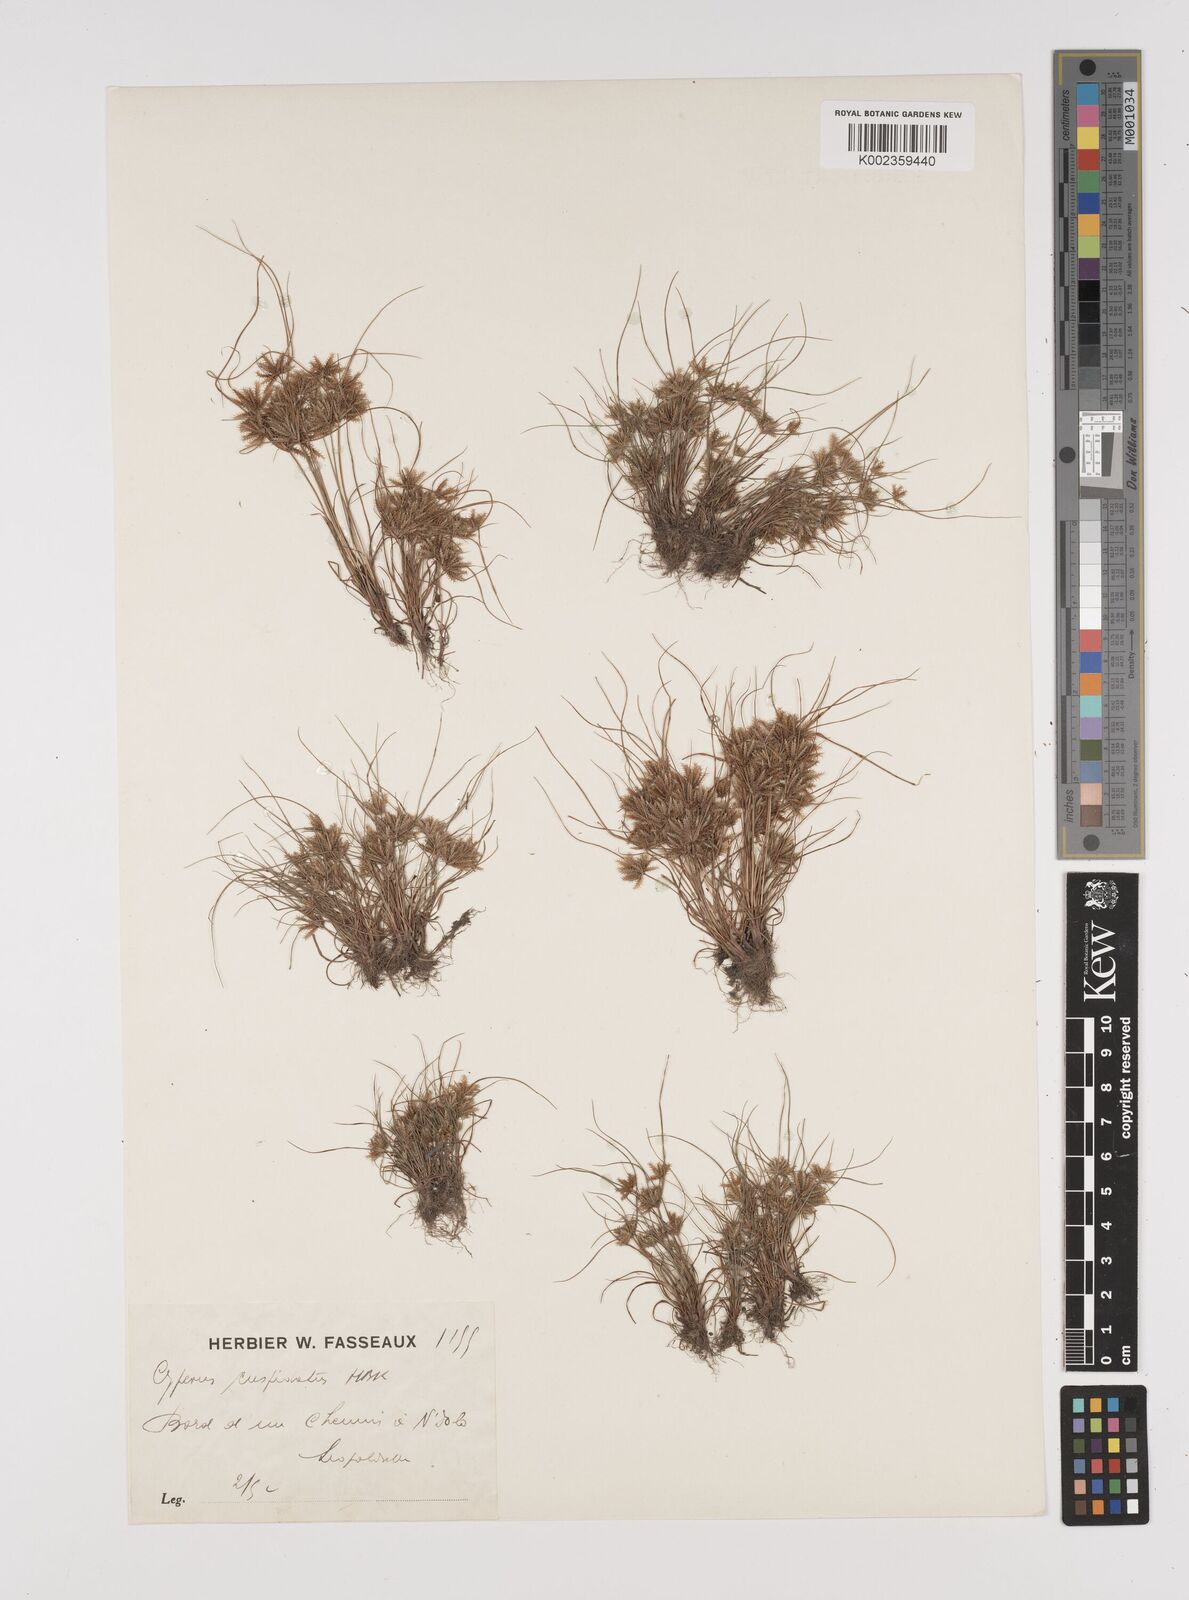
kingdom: Plantae
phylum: Tracheophyta
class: Liliopsida
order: Poales
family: Cyperaceae
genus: Cyperus
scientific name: Cyperus cuspidatus
